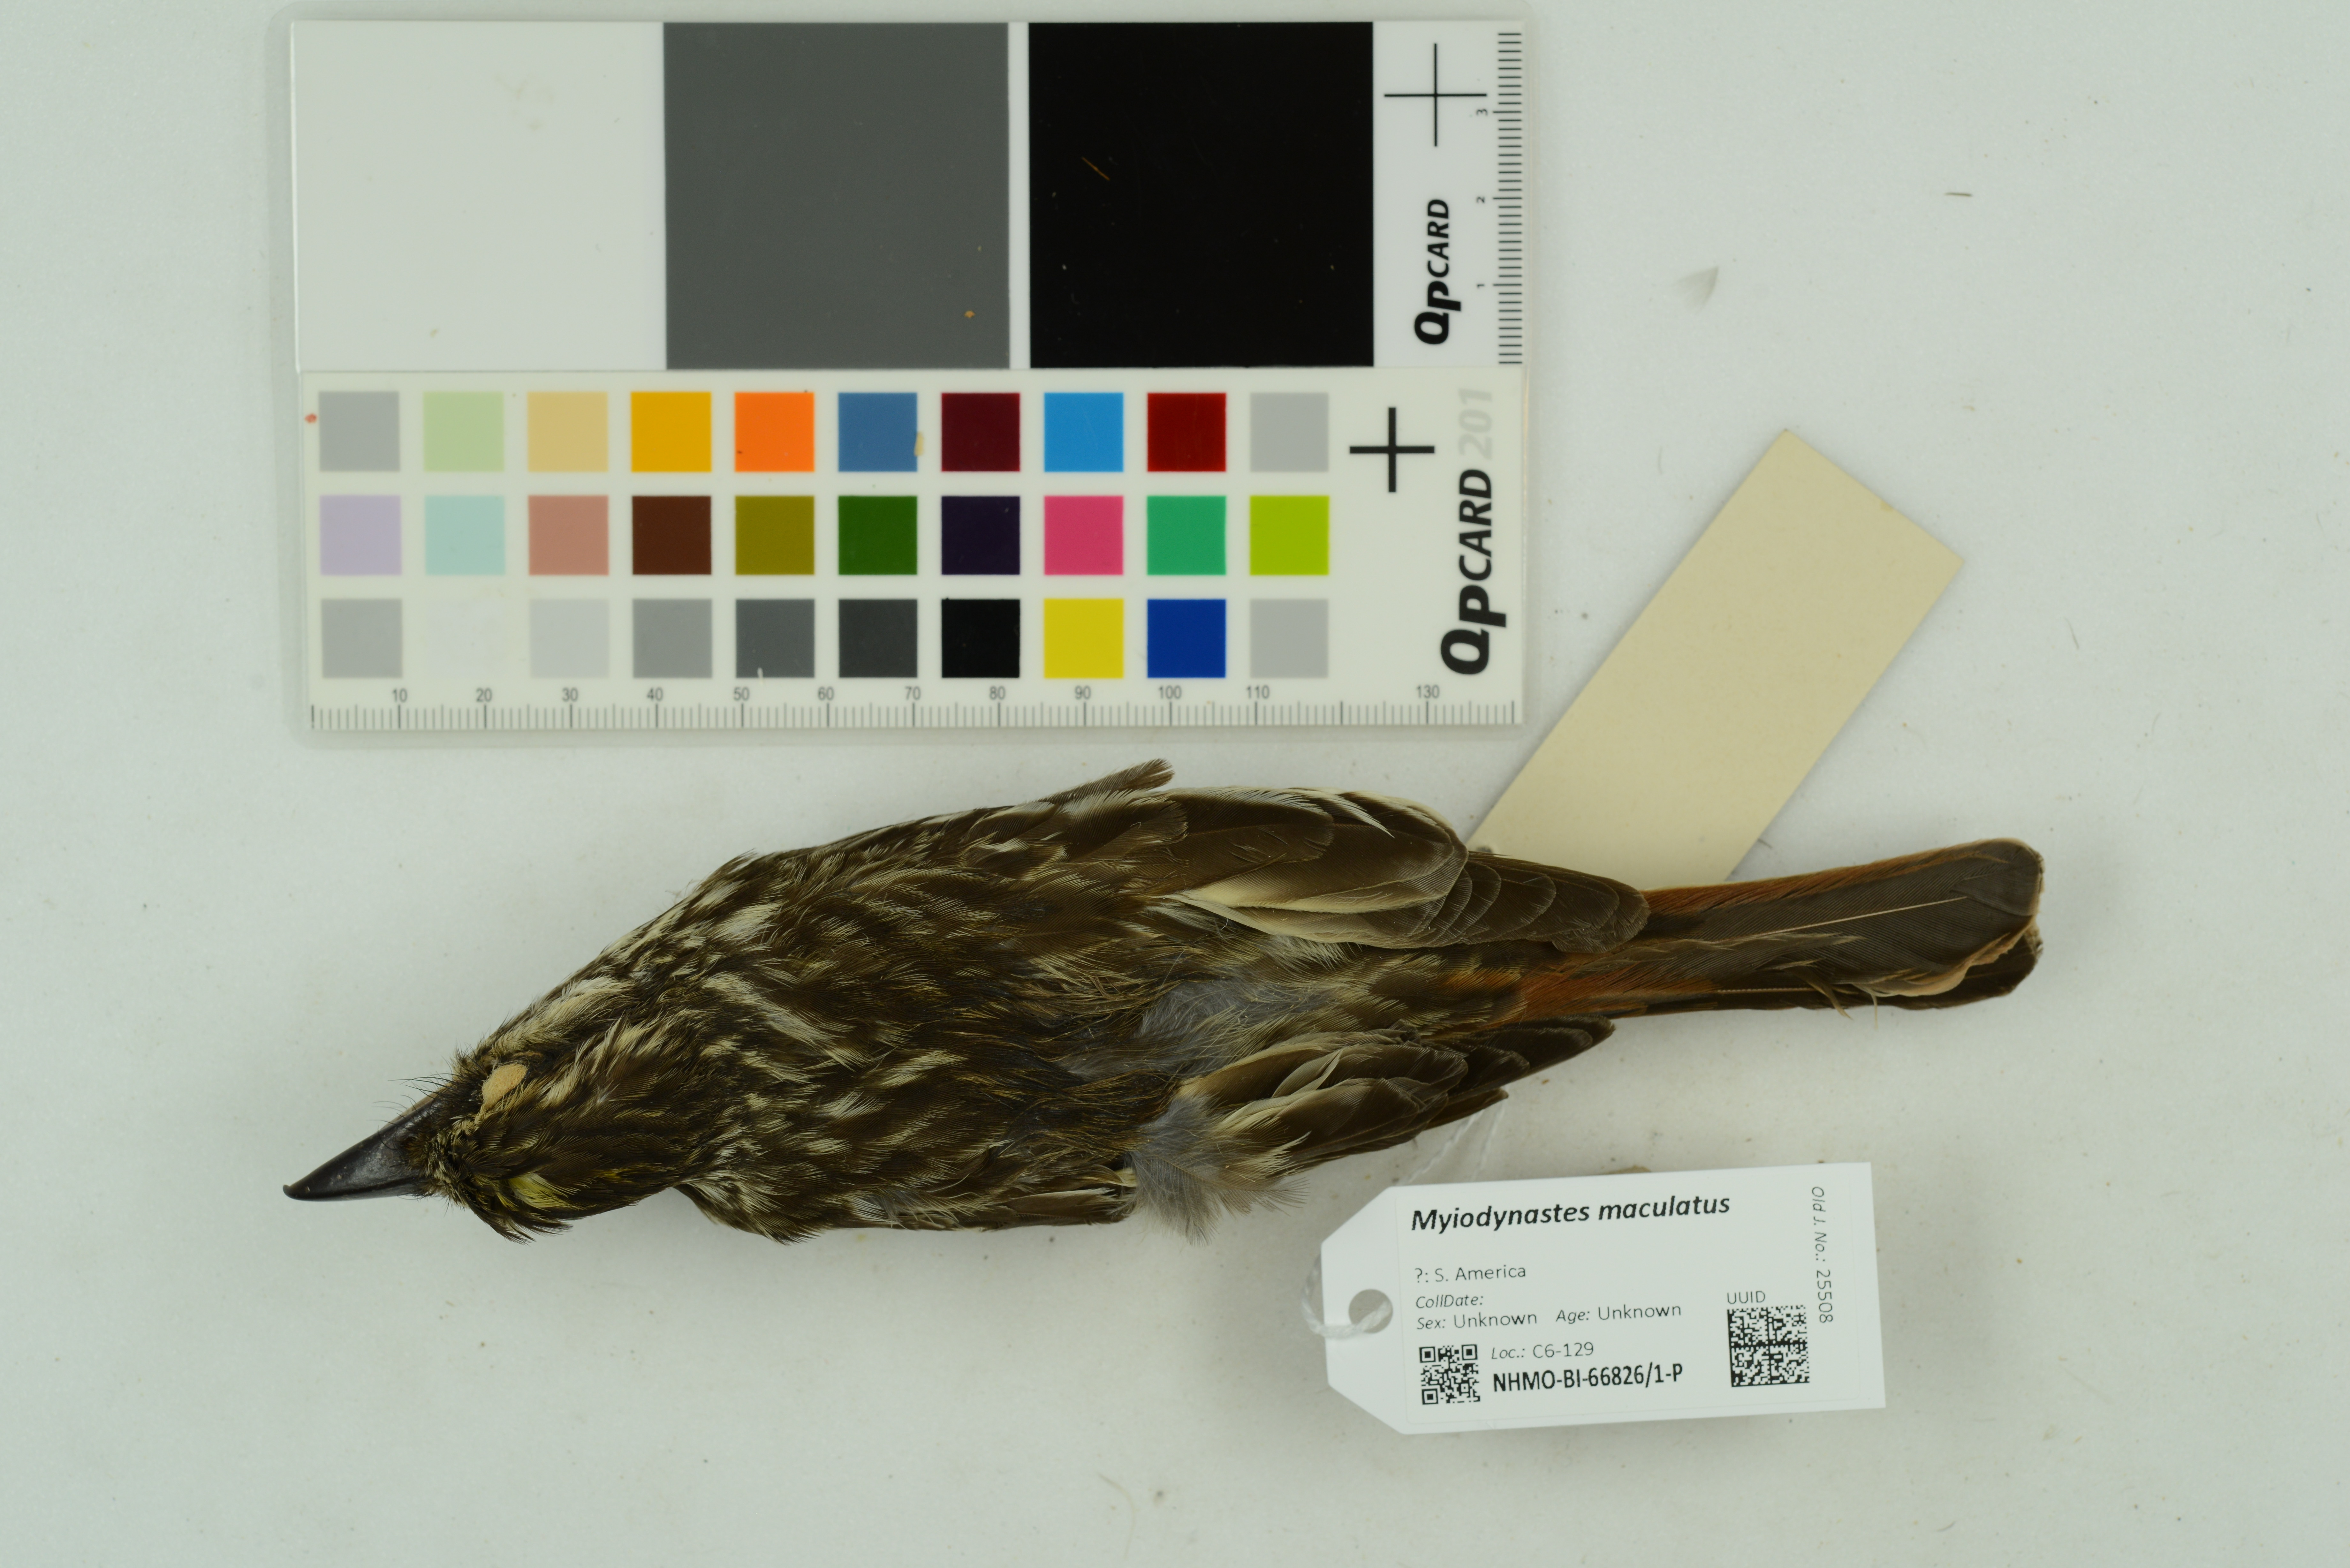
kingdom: Animalia
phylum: Chordata
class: Aves
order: Passeriformes
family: Tyrannidae
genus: Myiodynastes
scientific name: Myiodynastes maculatus
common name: Streaked flycatcher
